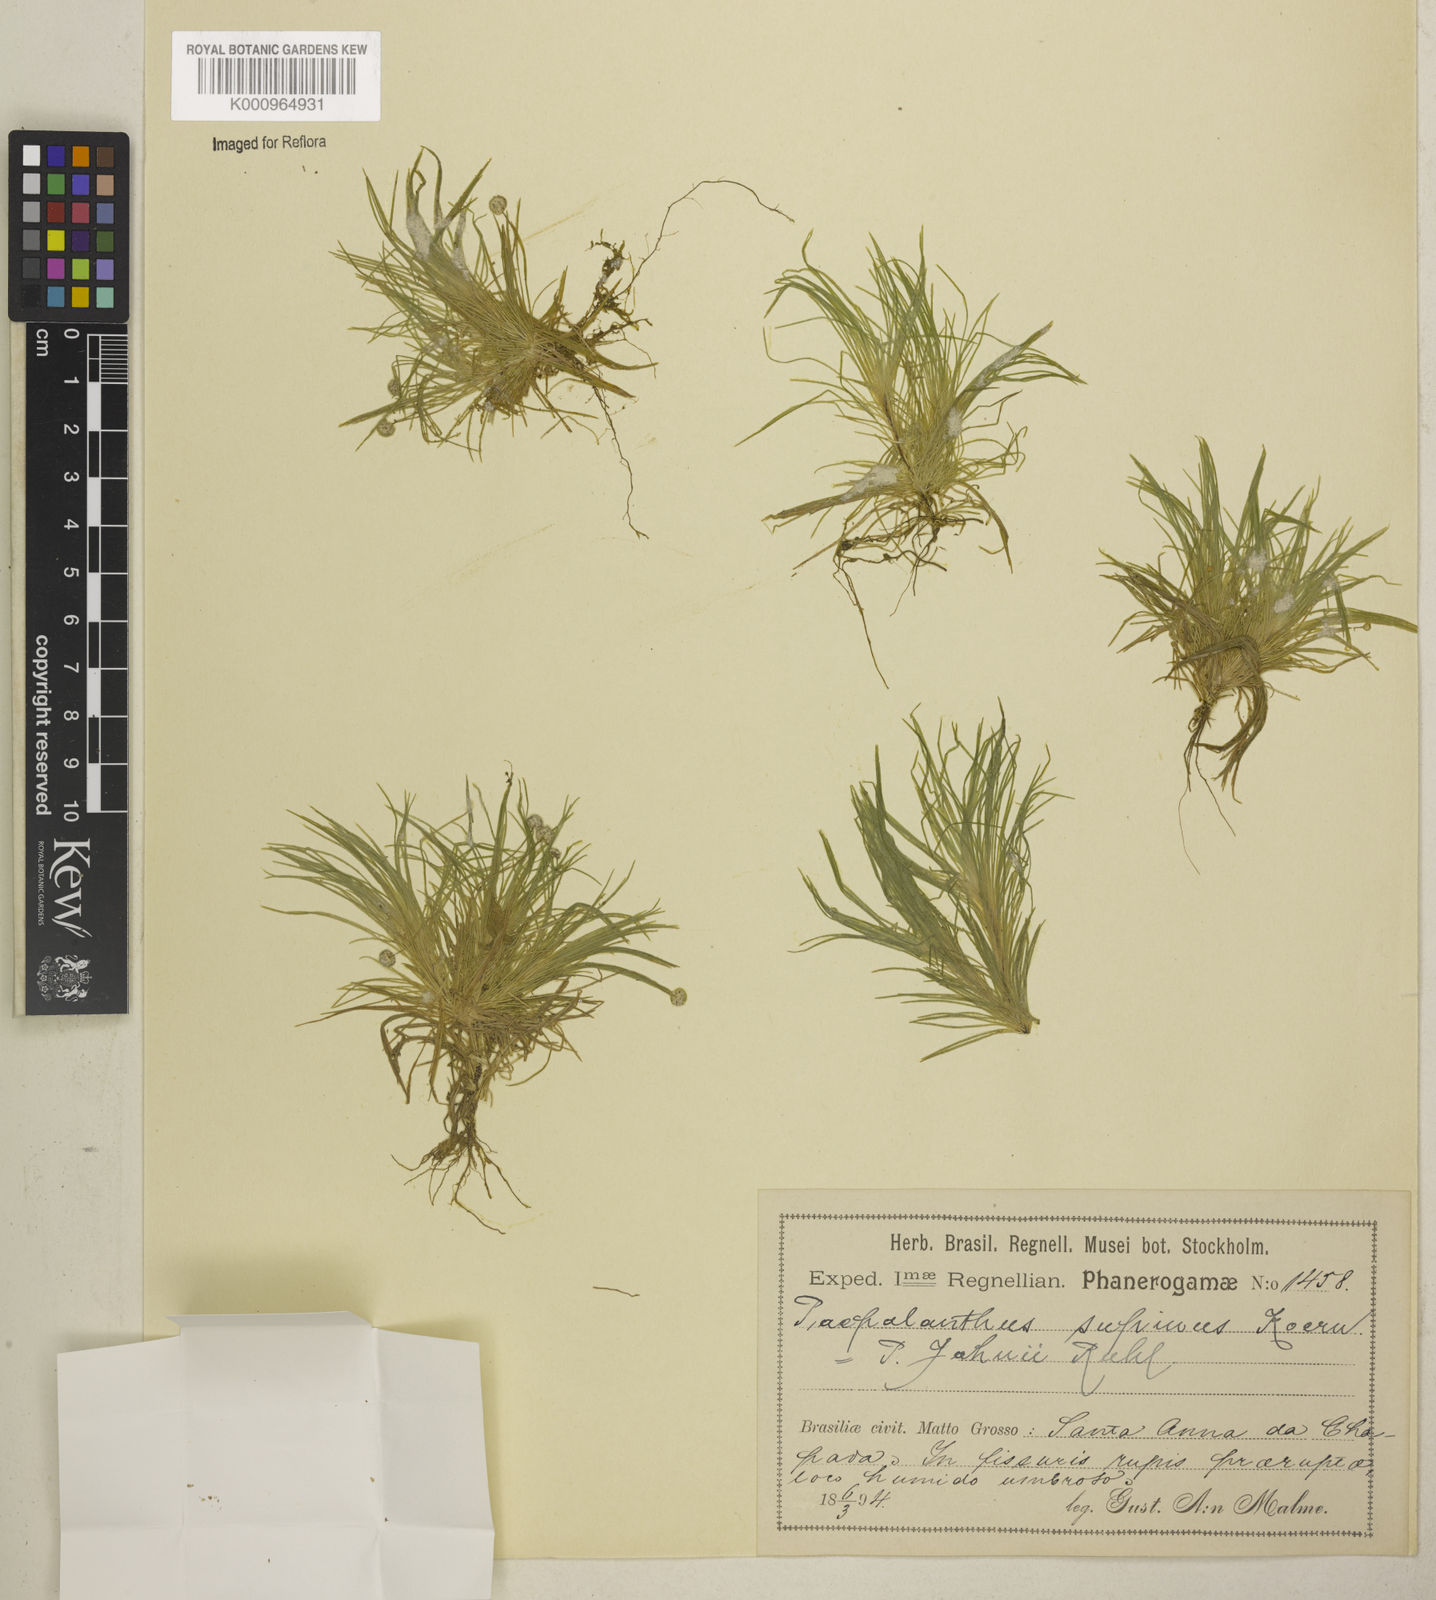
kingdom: Plantae
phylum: Tracheophyta
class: Liliopsida
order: Poales
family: Eriocaulaceae
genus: Paepalanthus
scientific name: Paepalanthus supinus
